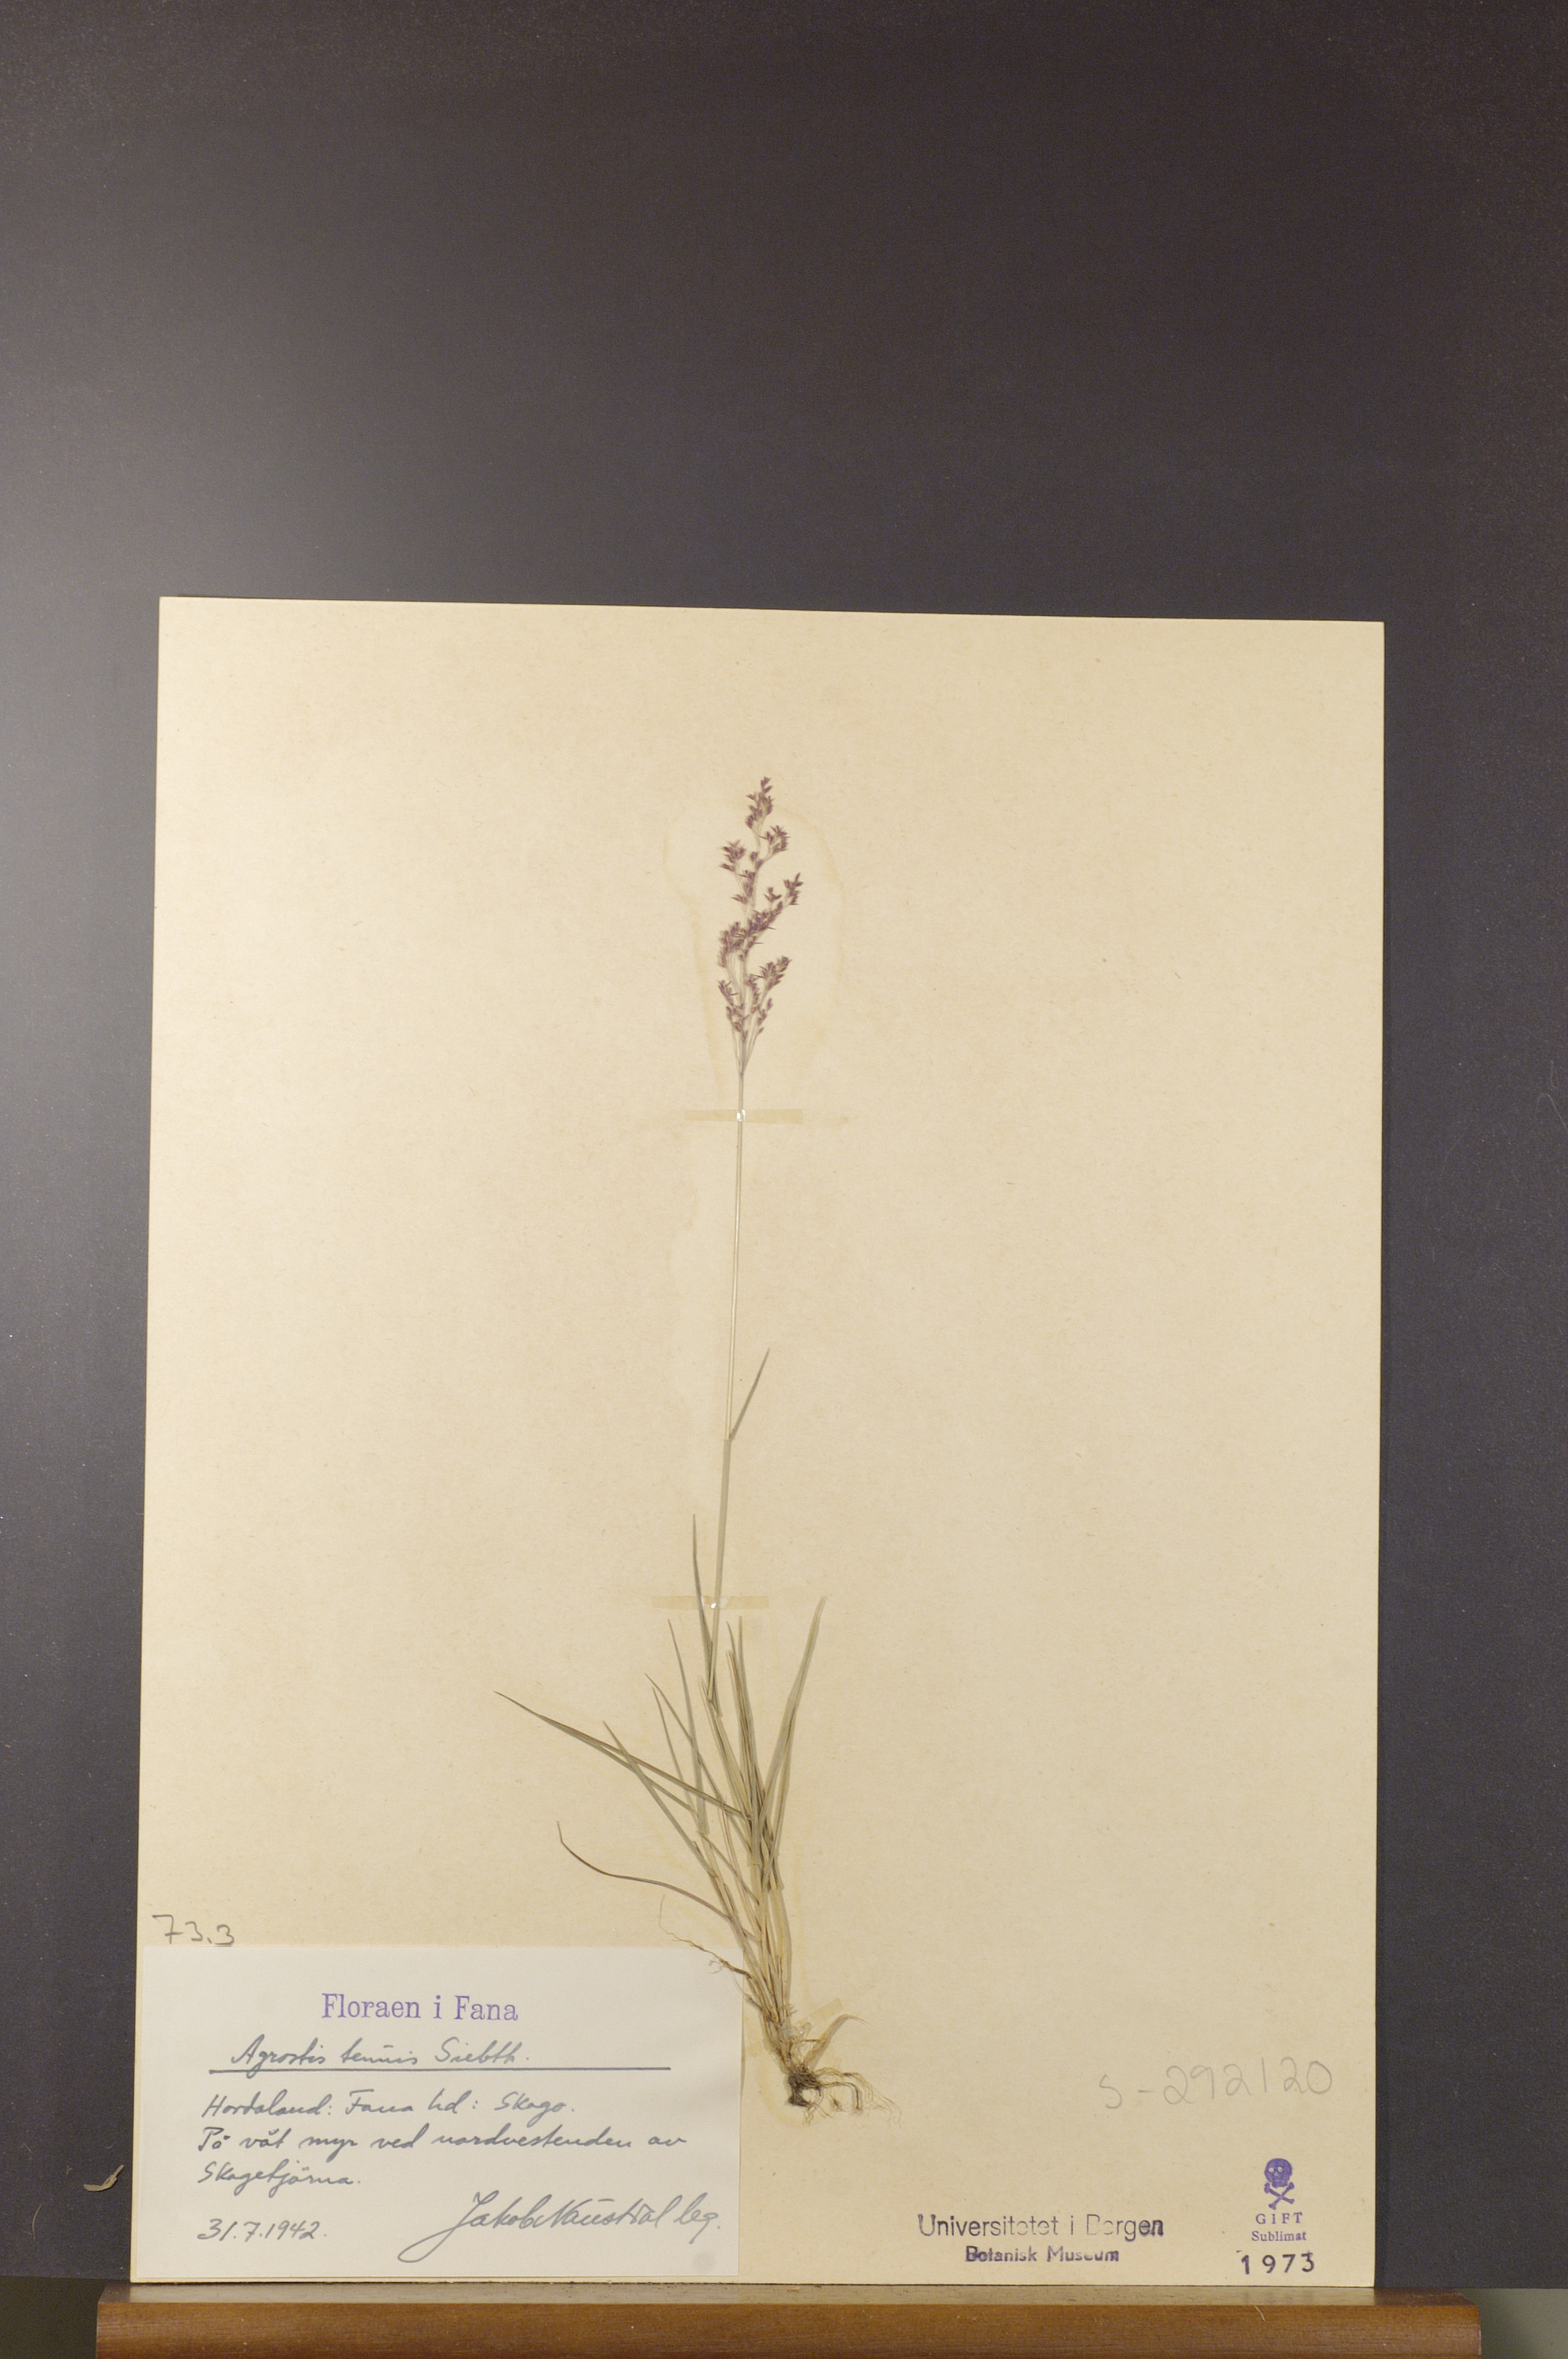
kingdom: Plantae
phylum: Tracheophyta
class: Liliopsida
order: Poales
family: Poaceae
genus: Agrostis
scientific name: Agrostis capillaris
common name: Colonial bentgrass
